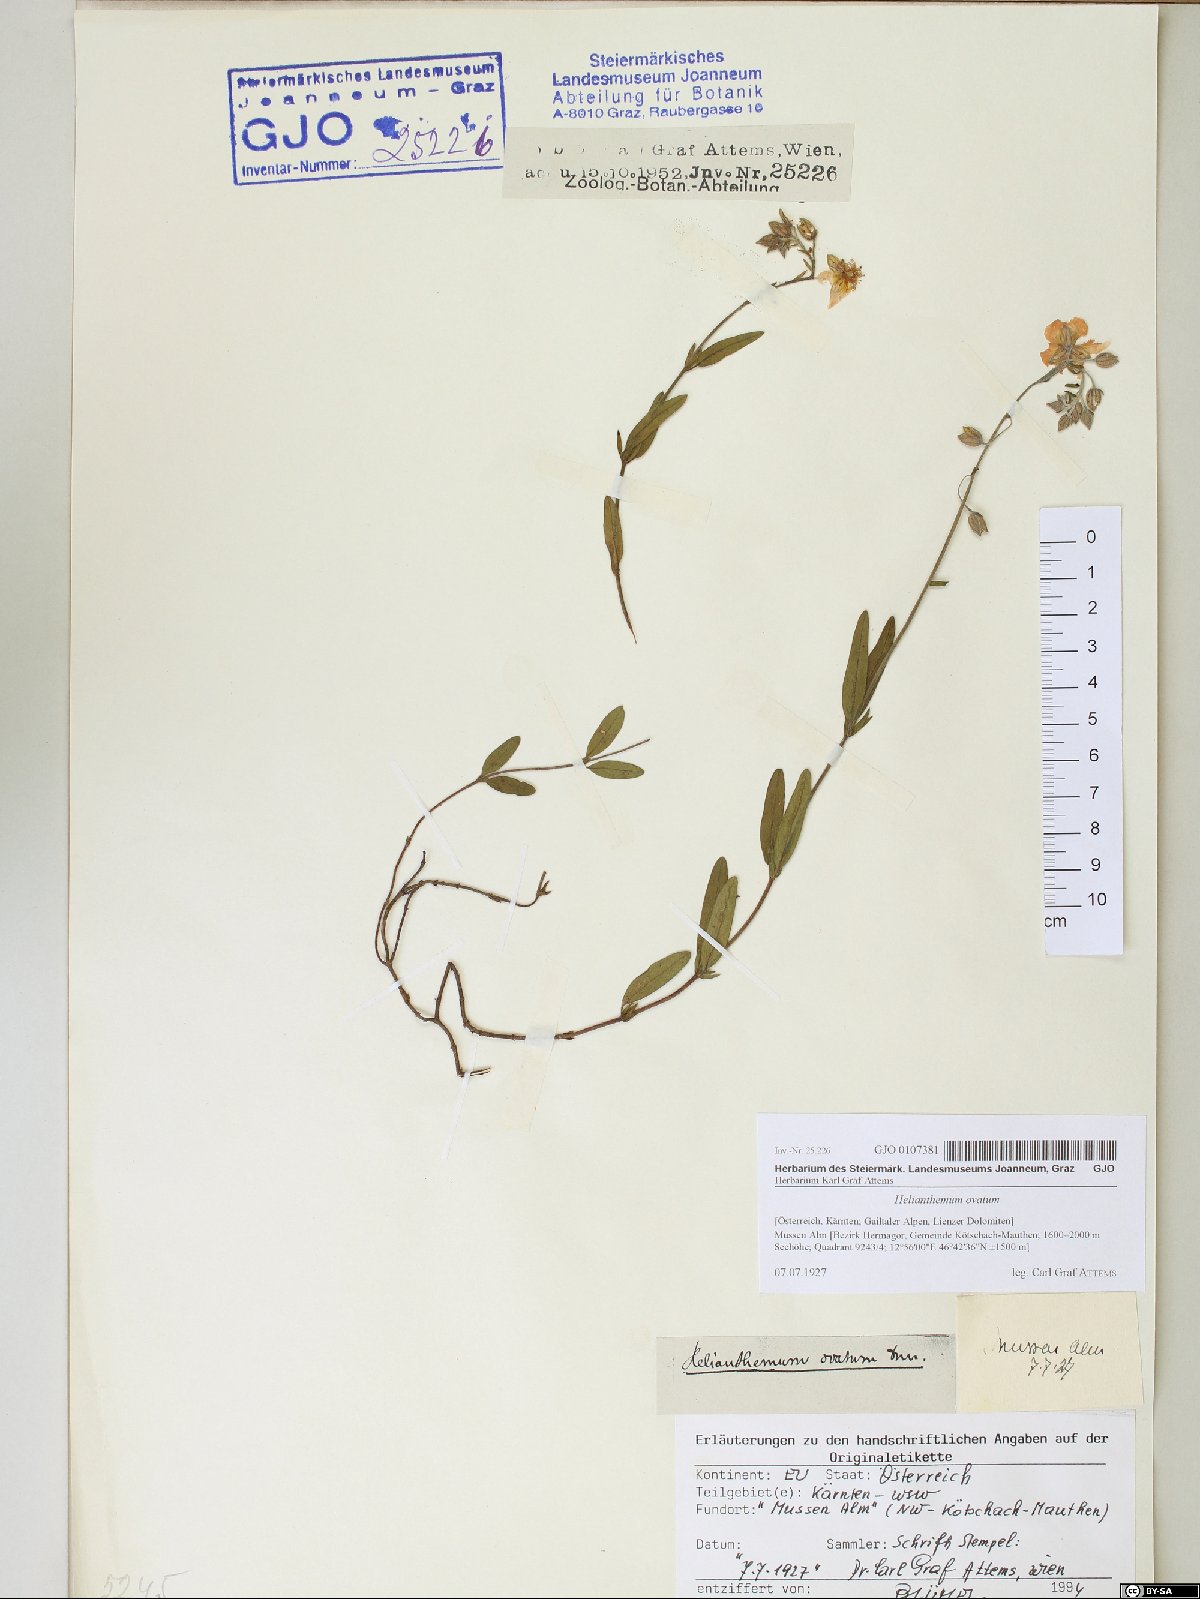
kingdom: Plantae
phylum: Tracheophyta
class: Magnoliopsida
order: Malvales
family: Cistaceae
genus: Helianthemum
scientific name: Helianthemum nummularium
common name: Common rock-rose
